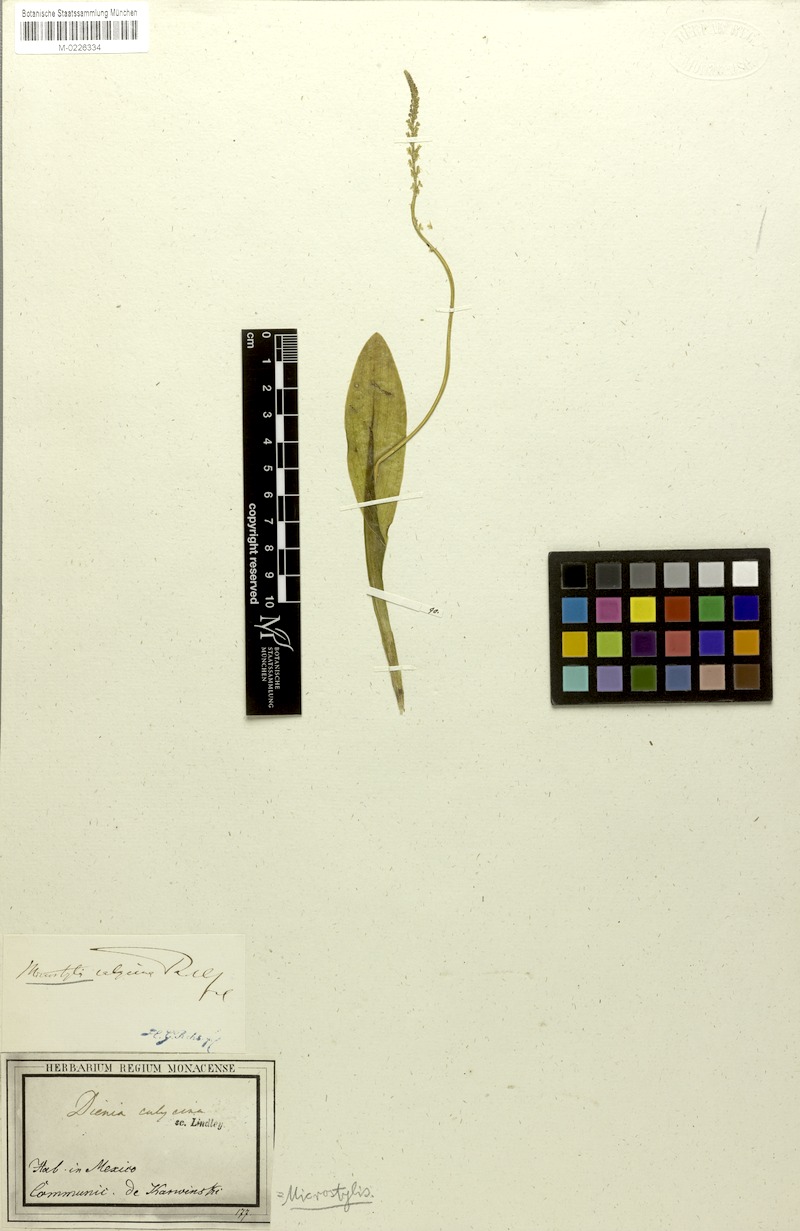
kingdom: Plantae
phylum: Tracheophyta
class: Liliopsida
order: Asparagales
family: Orchidaceae
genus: Malaxis
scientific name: Malaxis carnosa
